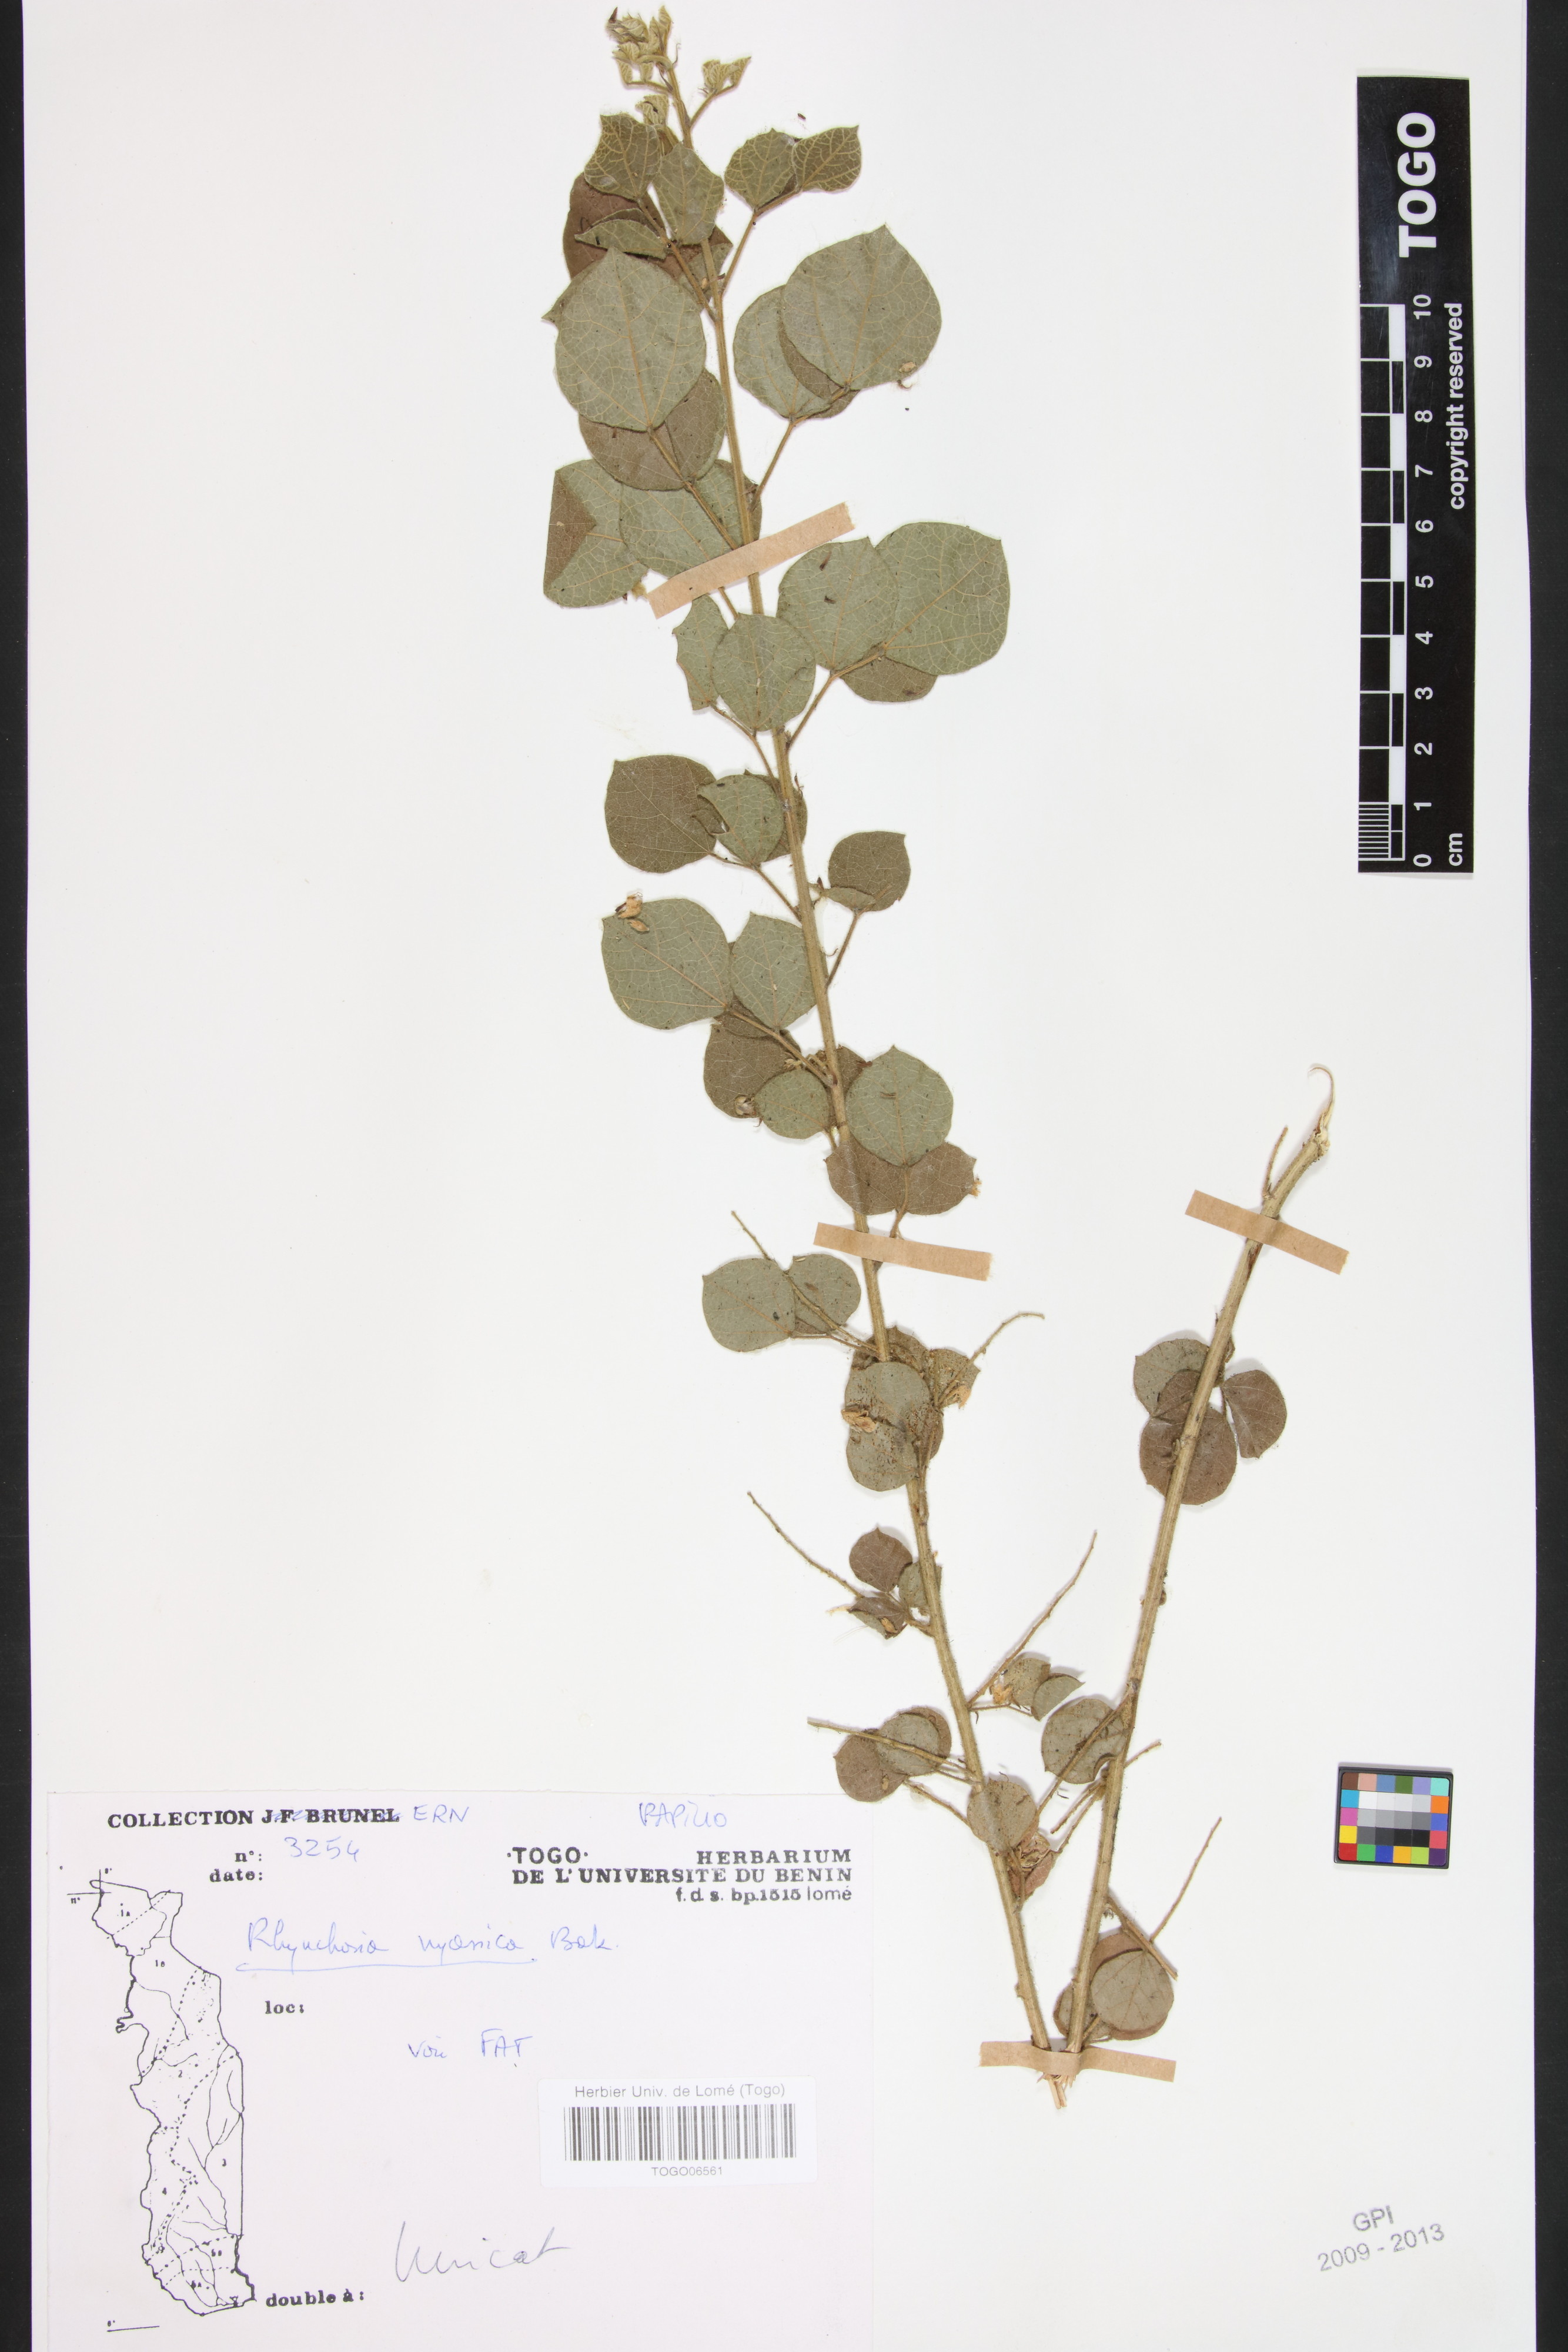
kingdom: Plantae
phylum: Tracheophyta
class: Magnoliopsida
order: Fabales
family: Fabaceae
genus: Rhynchosia
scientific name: Rhynchosia nyasica
